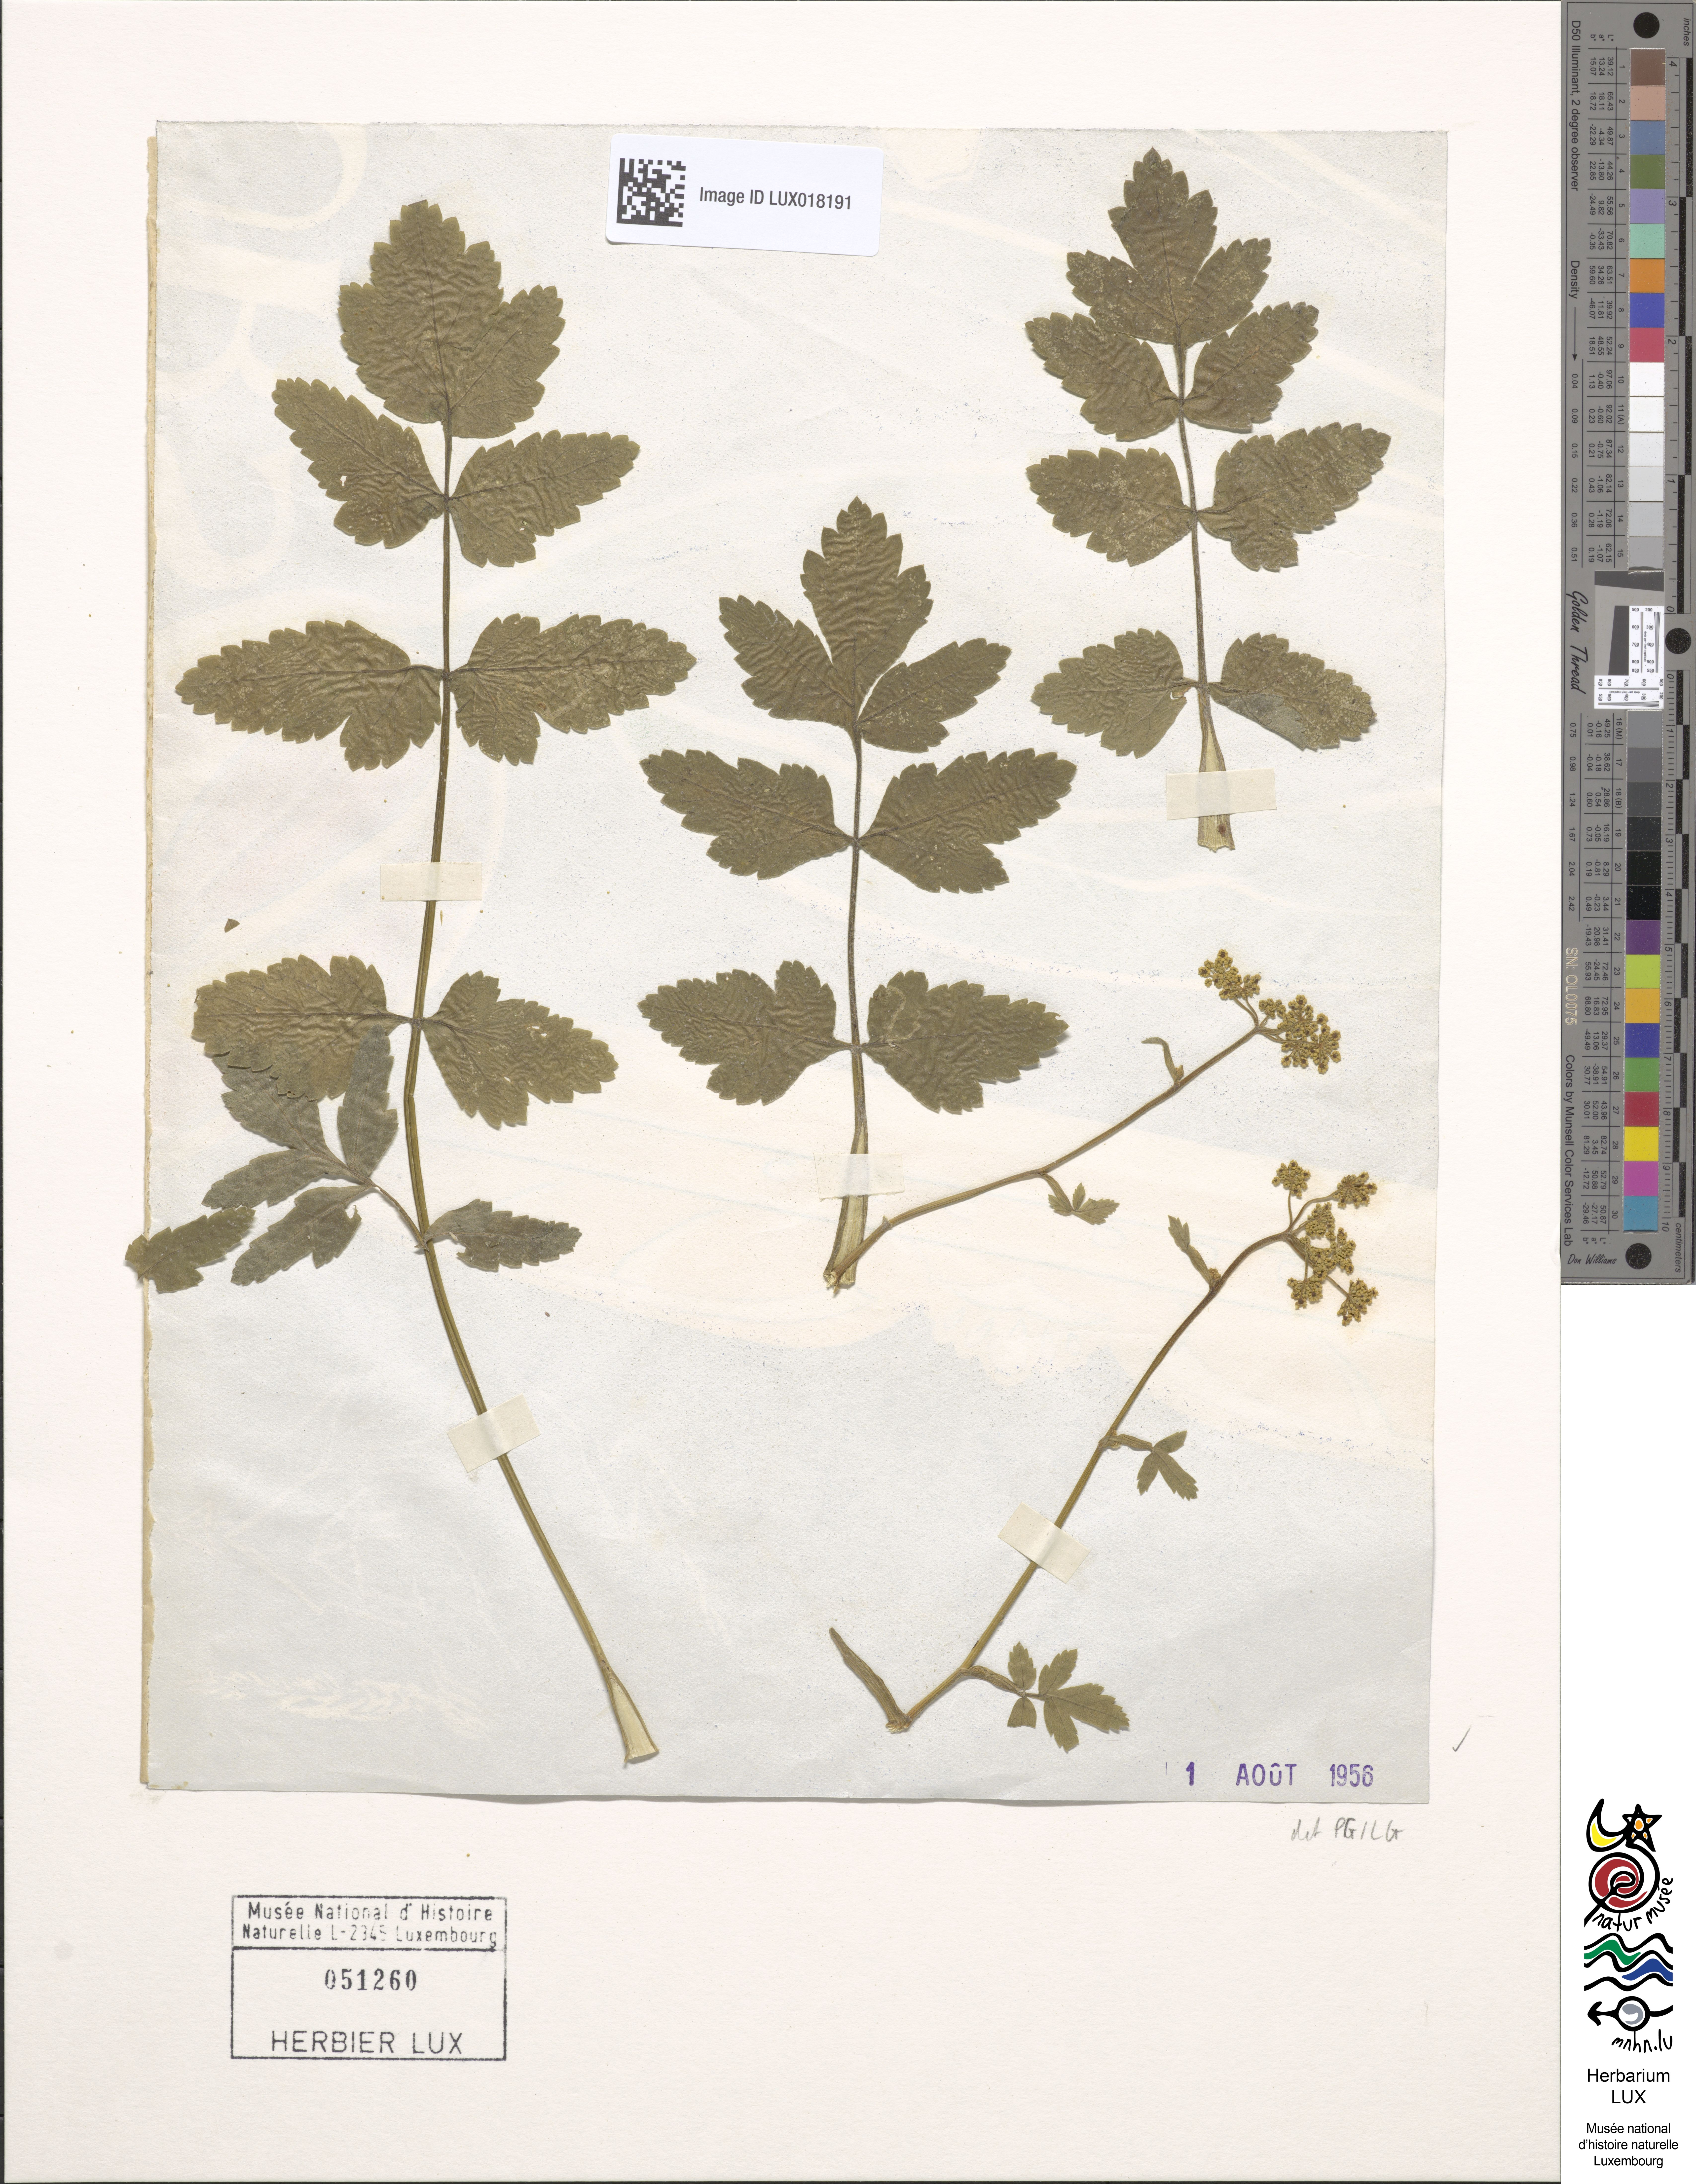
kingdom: Plantae
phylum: Tracheophyta
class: Magnoliopsida
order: Apiales
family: Apiaceae
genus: Pastinaca
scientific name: Pastinaca sativa
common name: Wild parsnip
